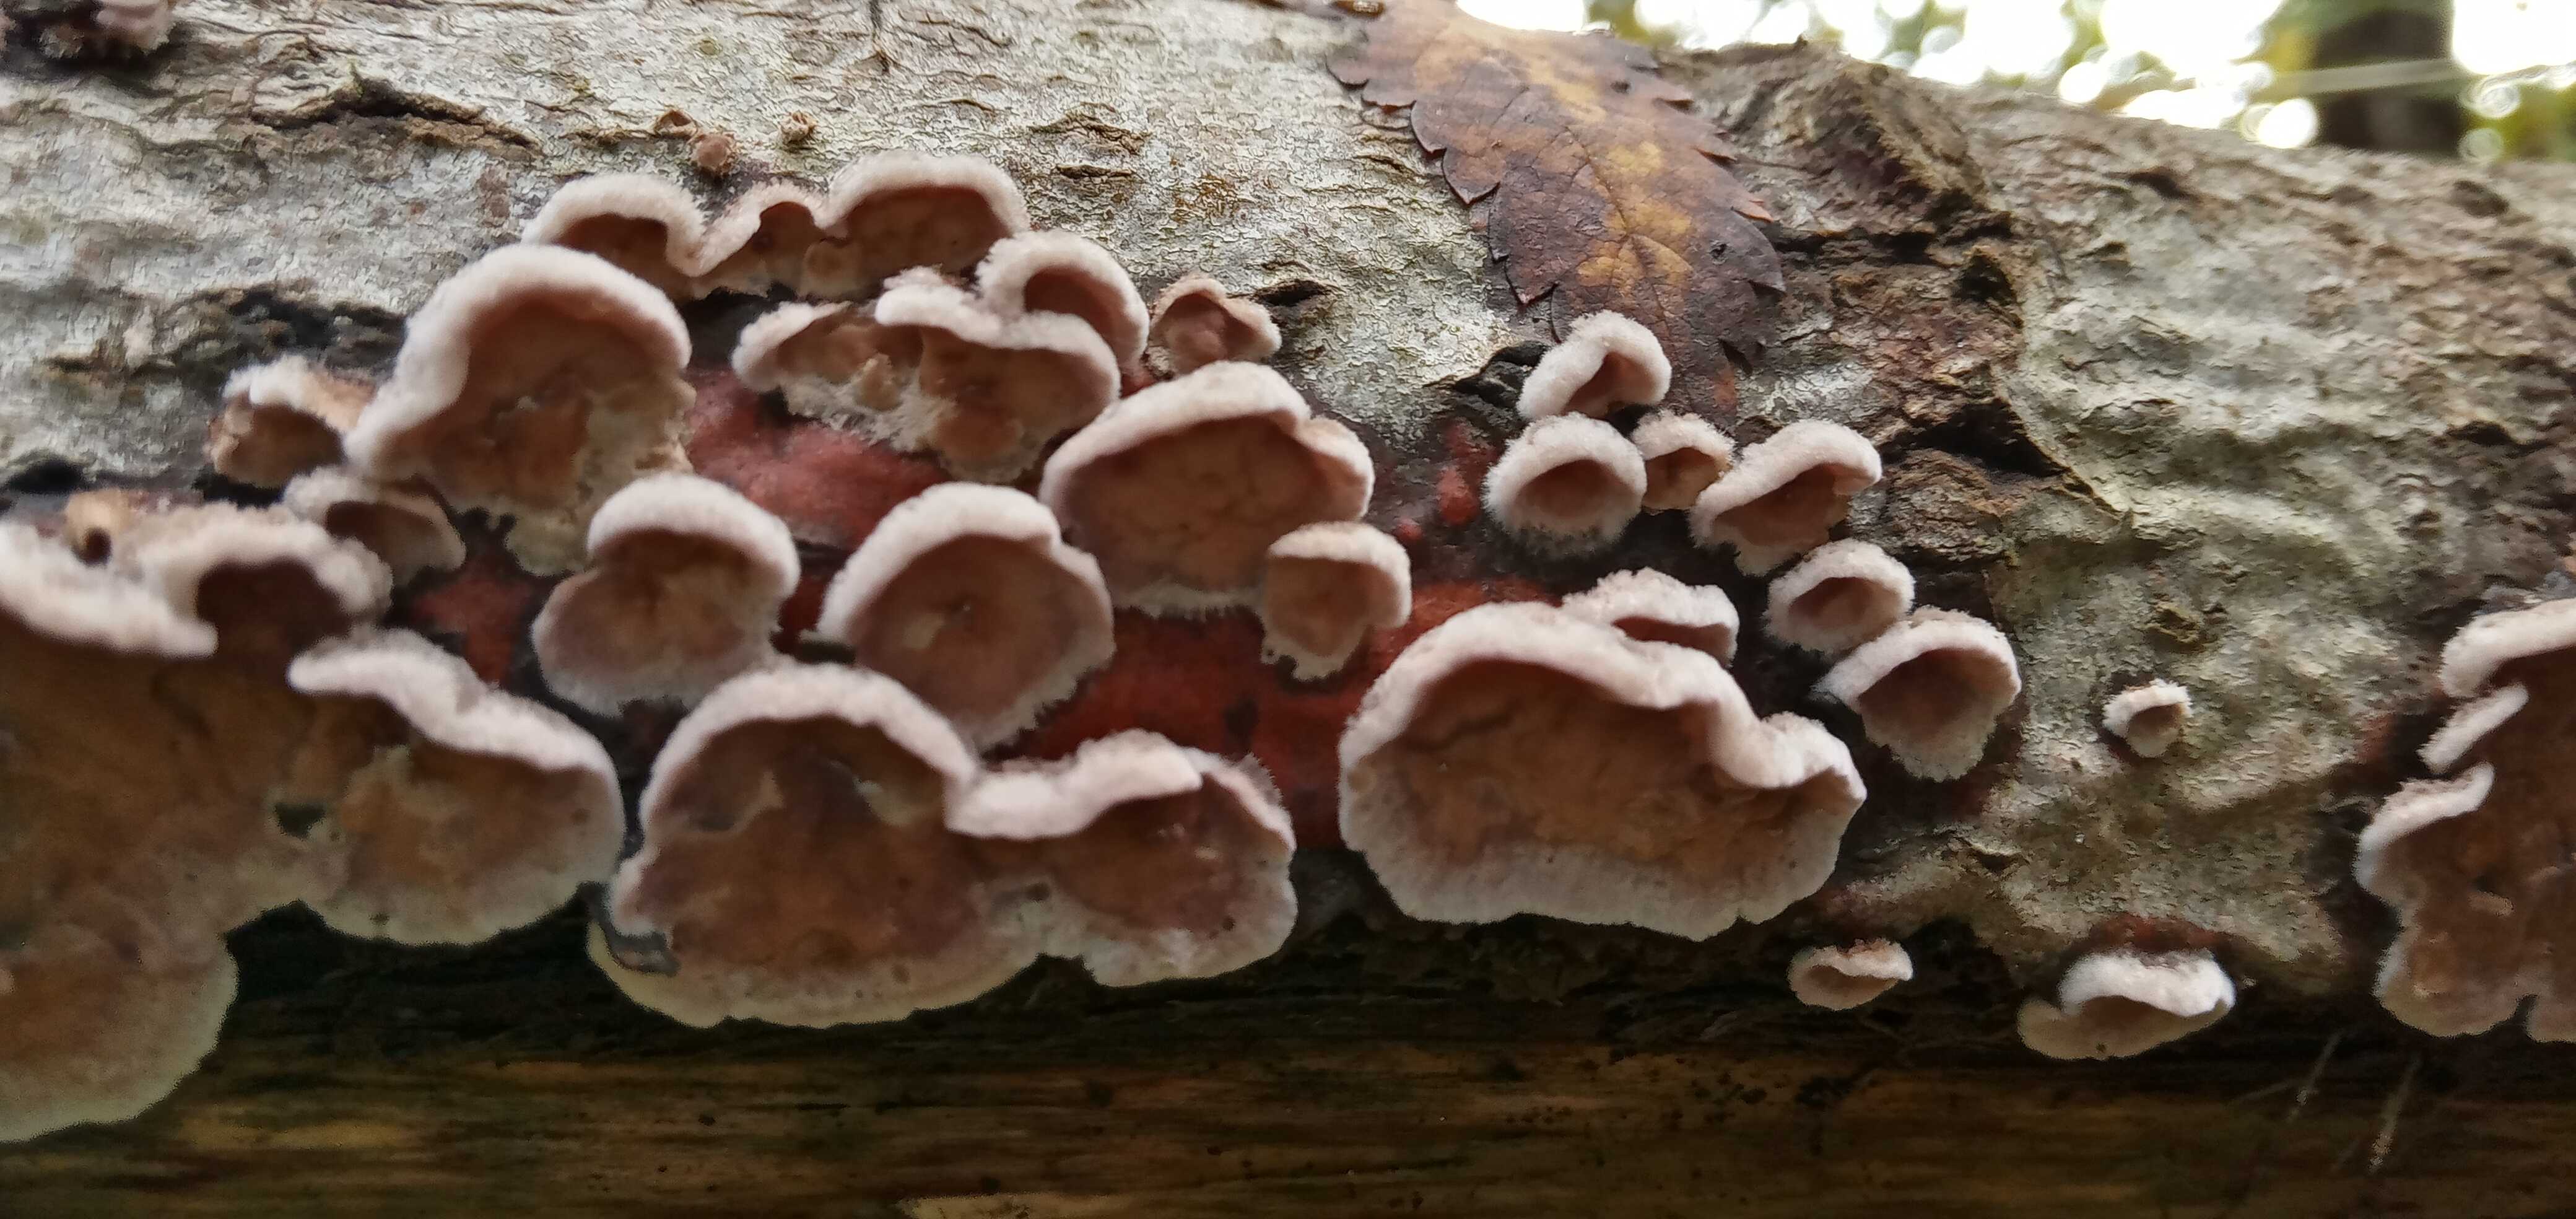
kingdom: Fungi
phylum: Basidiomycota
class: Agaricomycetes
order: Agaricales
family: Cyphellaceae
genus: Chondrostereum
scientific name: Chondrostereum purpureum
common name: purpurlædersvamp
